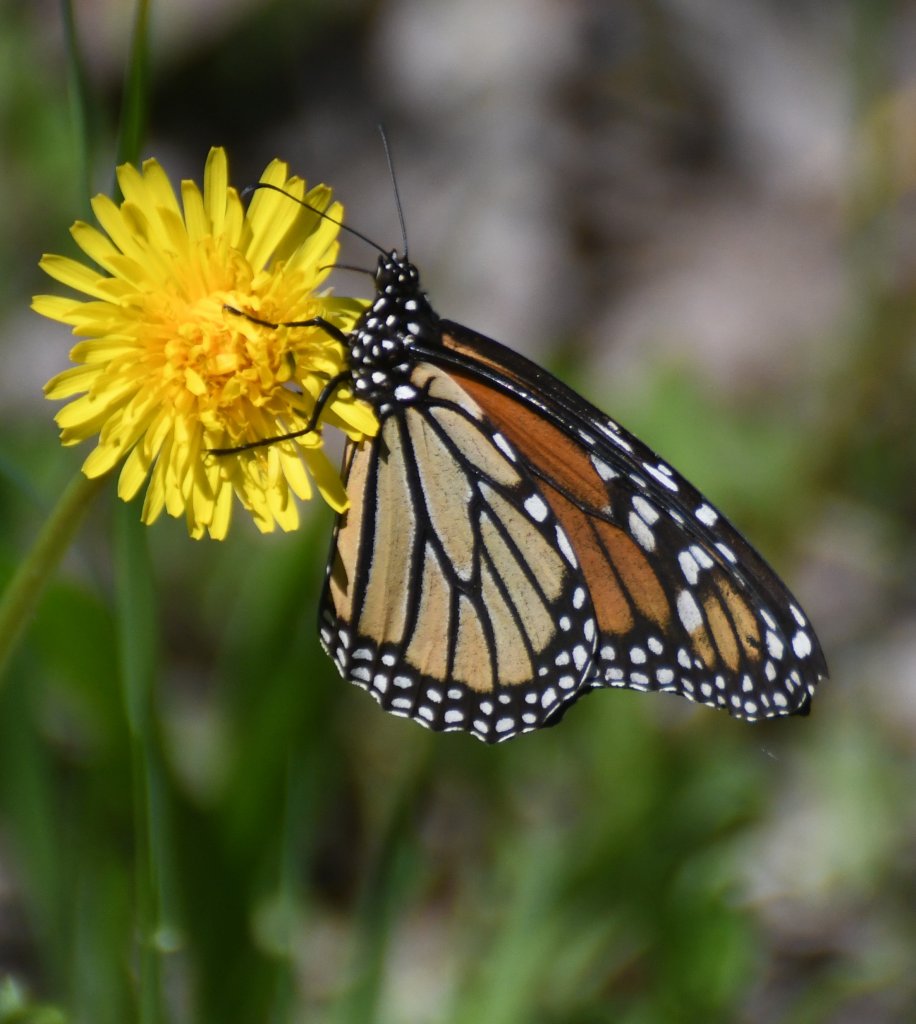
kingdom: Animalia
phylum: Arthropoda
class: Insecta
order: Lepidoptera
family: Nymphalidae
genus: Danaus
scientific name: Danaus plexippus
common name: Monarch
